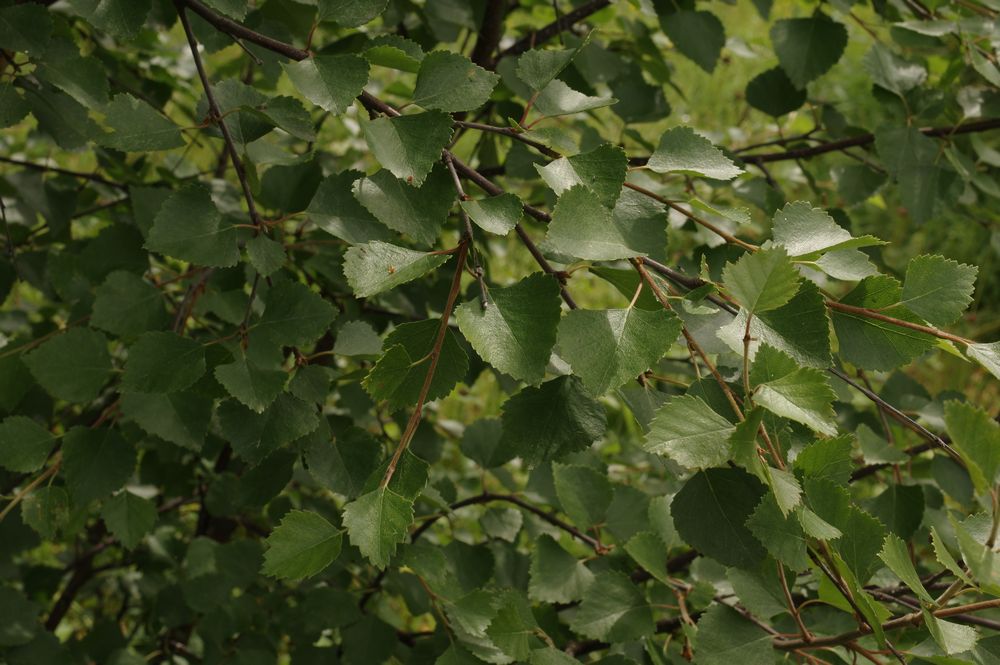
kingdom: Plantae
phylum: Tracheophyta
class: Magnoliopsida
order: Fagales
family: Betulaceae
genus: Betula
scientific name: Betula nana
